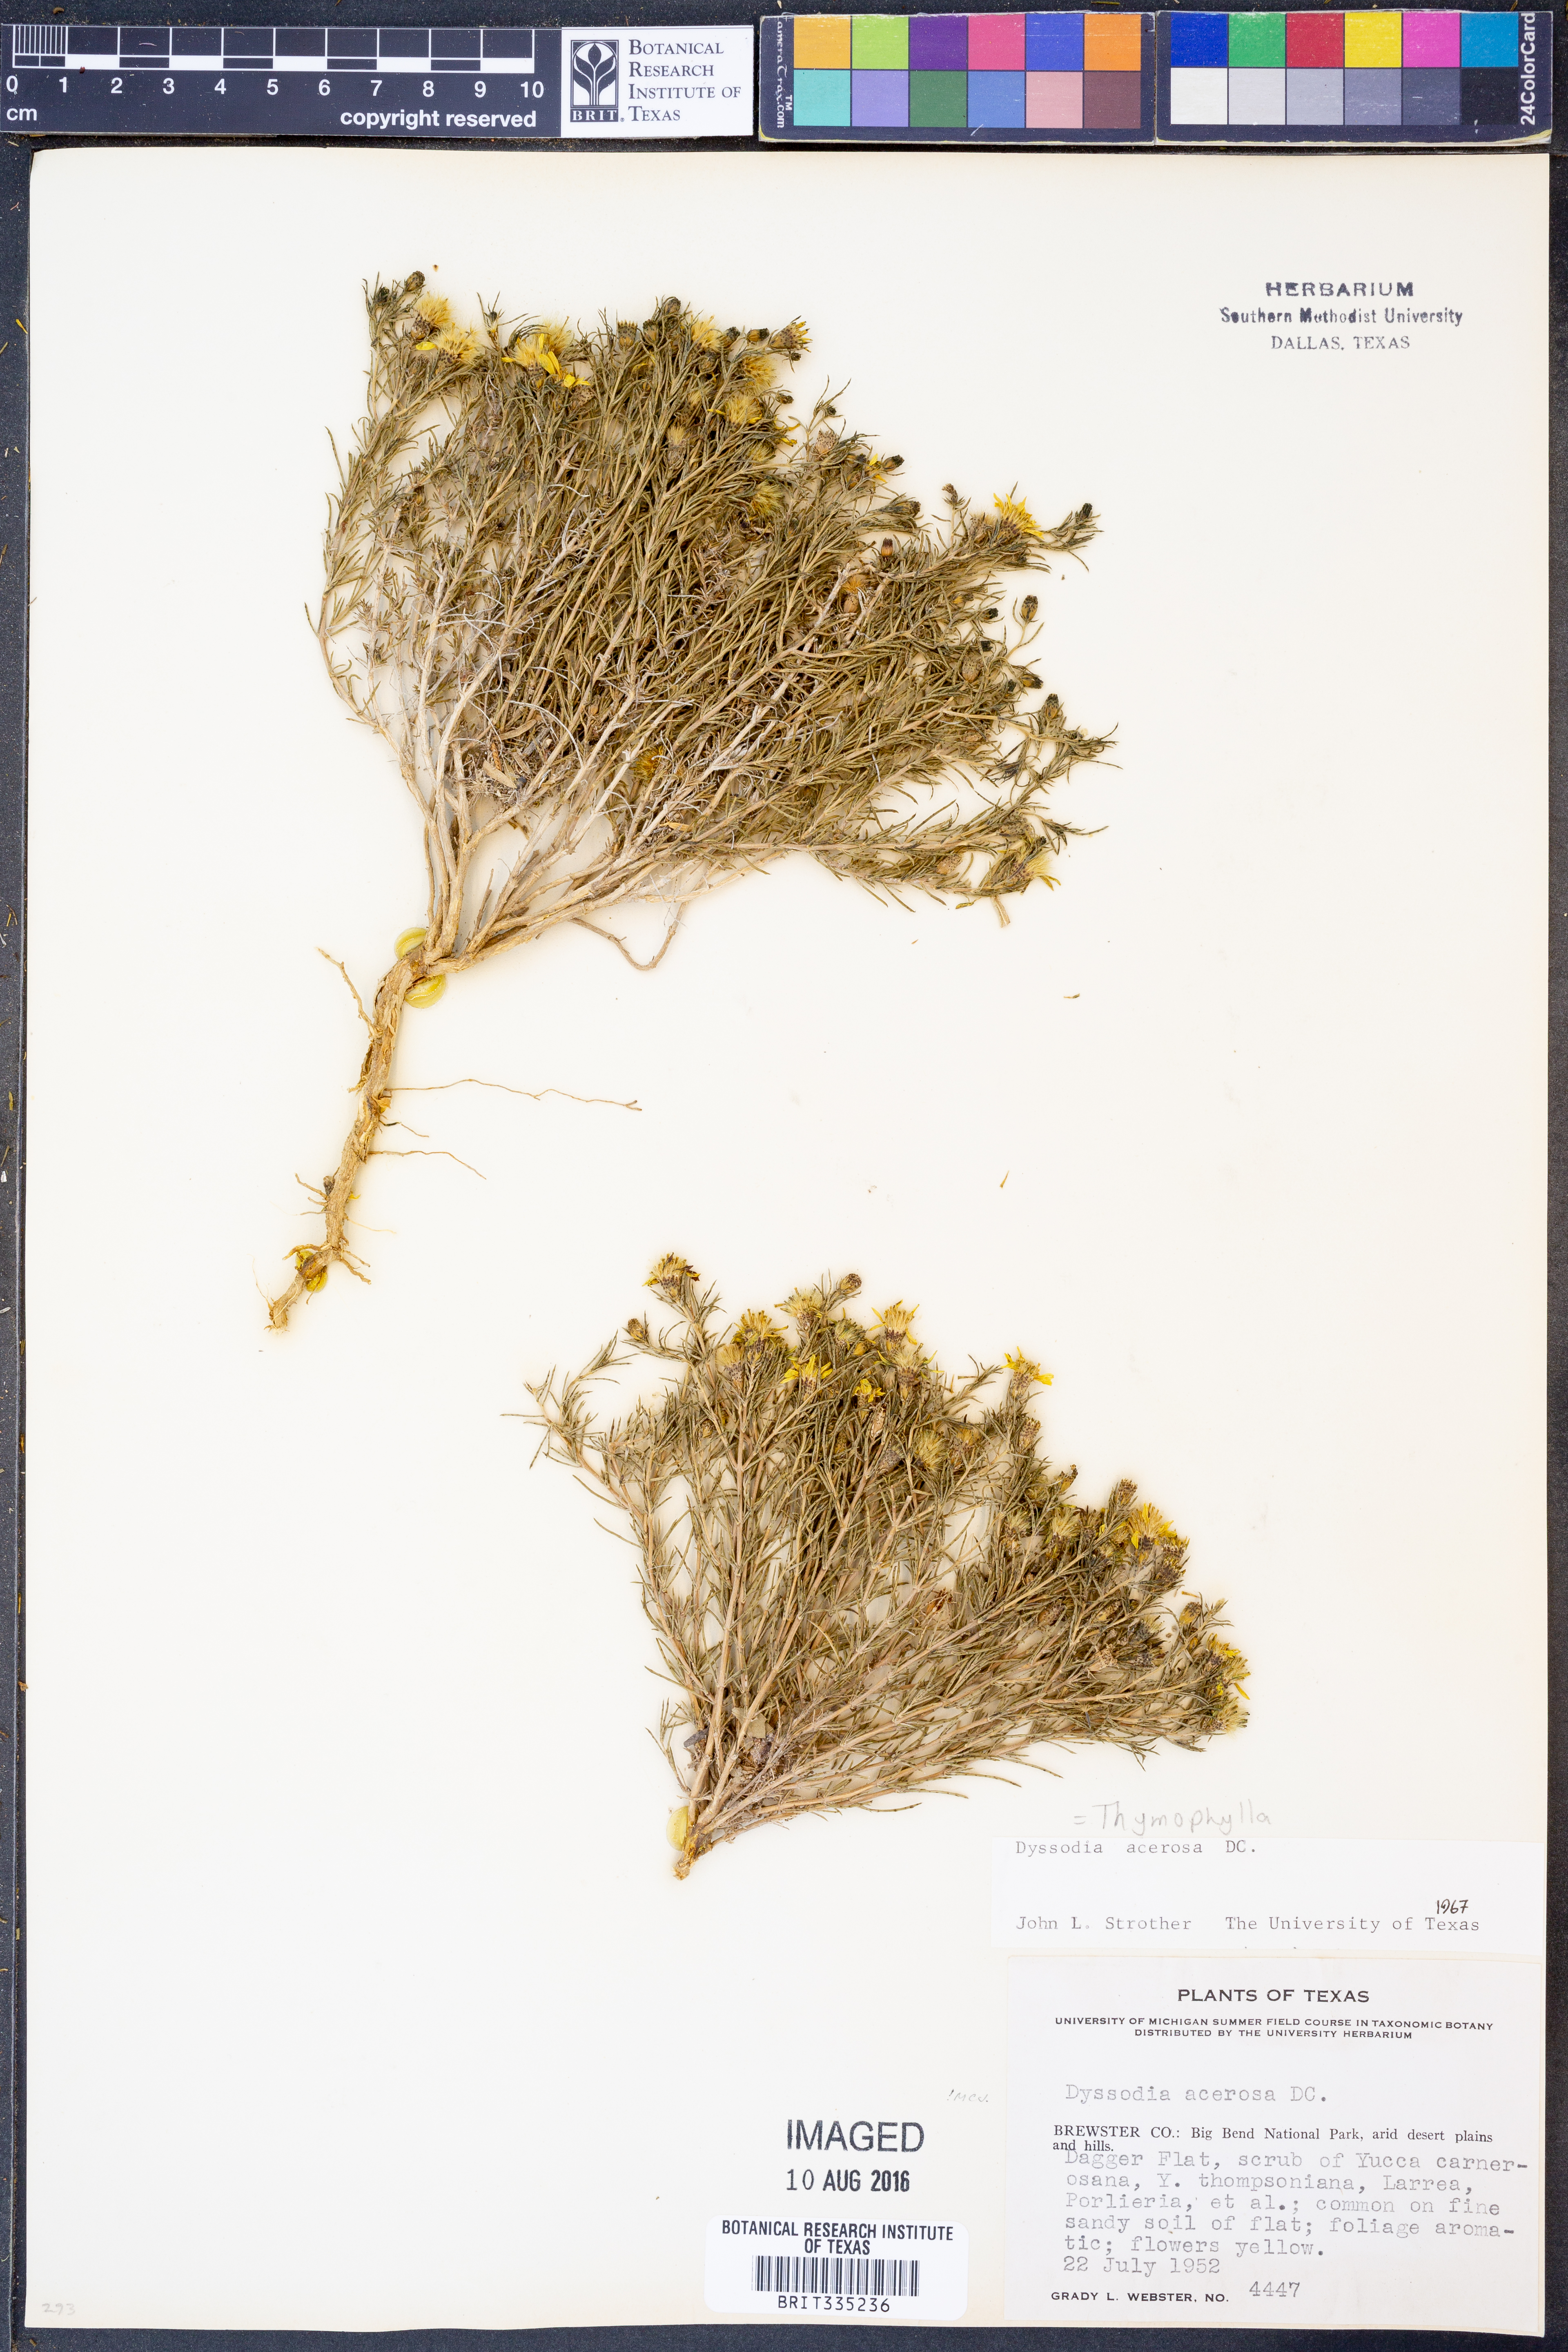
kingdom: Plantae
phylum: Tracheophyta
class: Magnoliopsida
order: Asterales
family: Asteraceae
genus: Thymophylla
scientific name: Thymophylla acerosa
